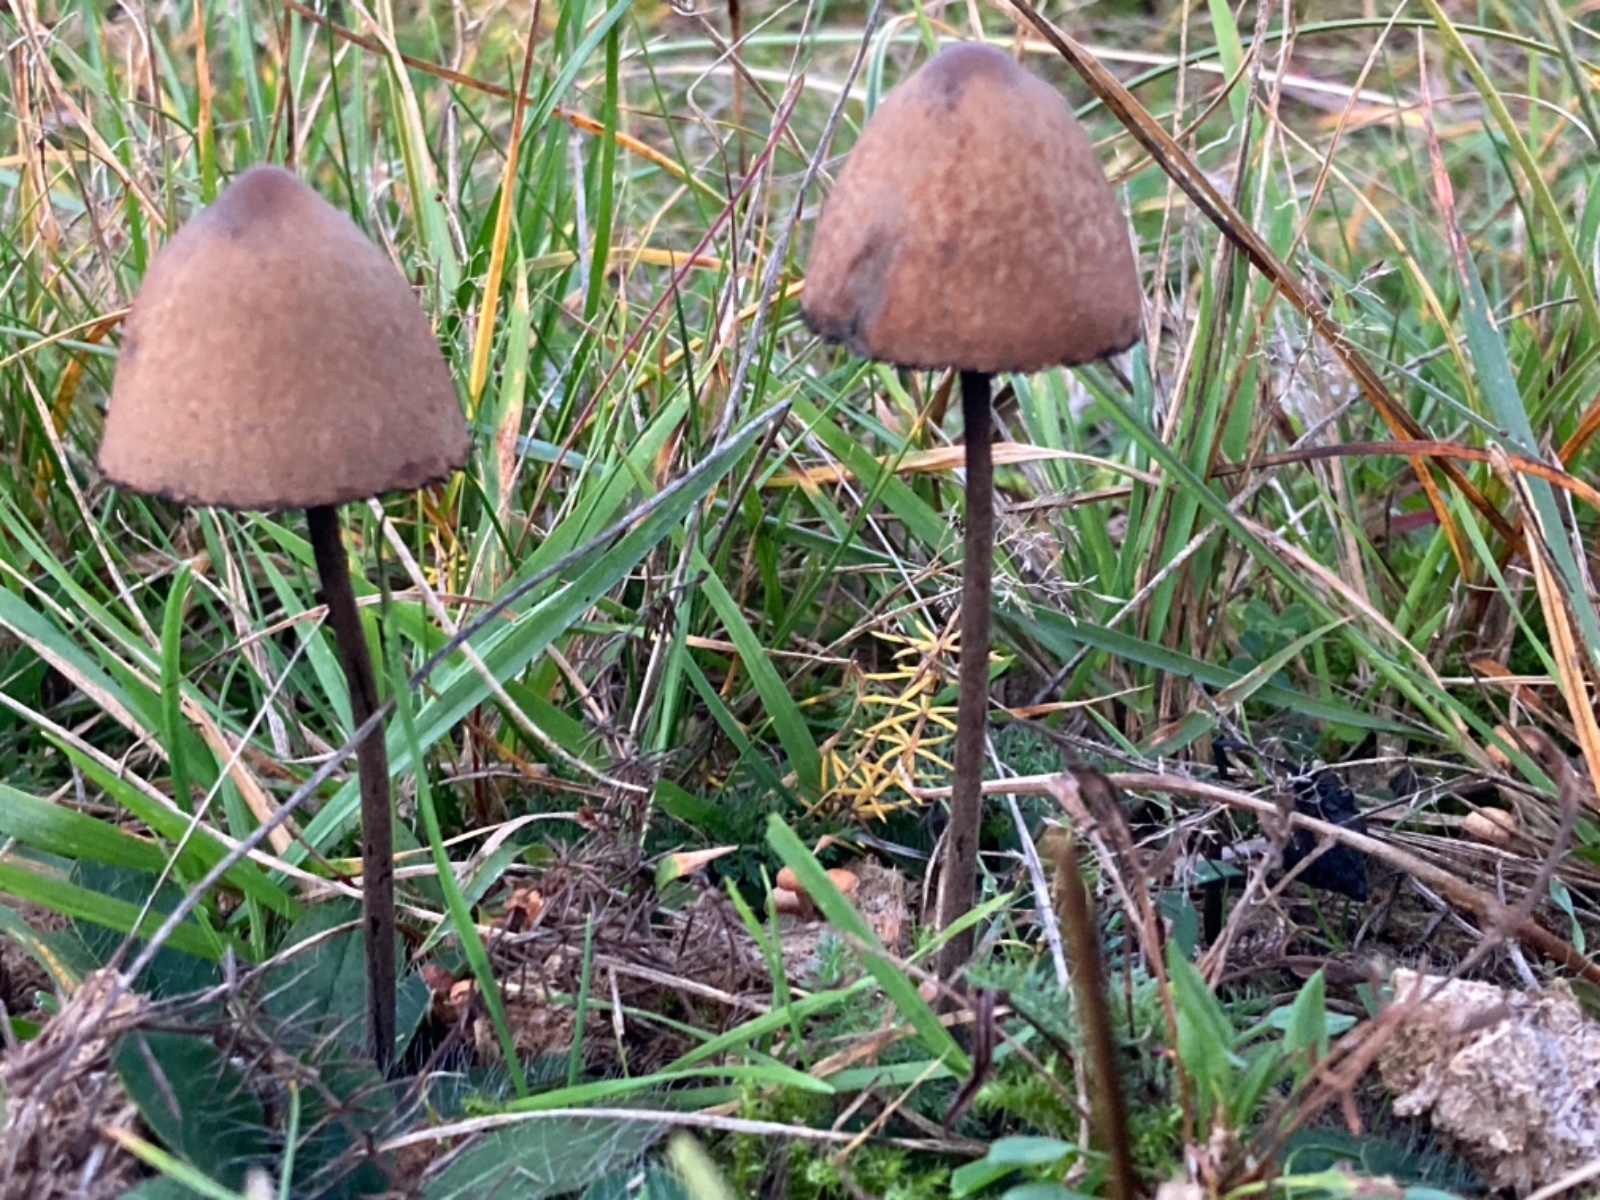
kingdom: Fungi
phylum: Basidiomycota
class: Agaricomycetes
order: Agaricales
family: Bolbitiaceae
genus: Panaeolus
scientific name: Panaeolus
